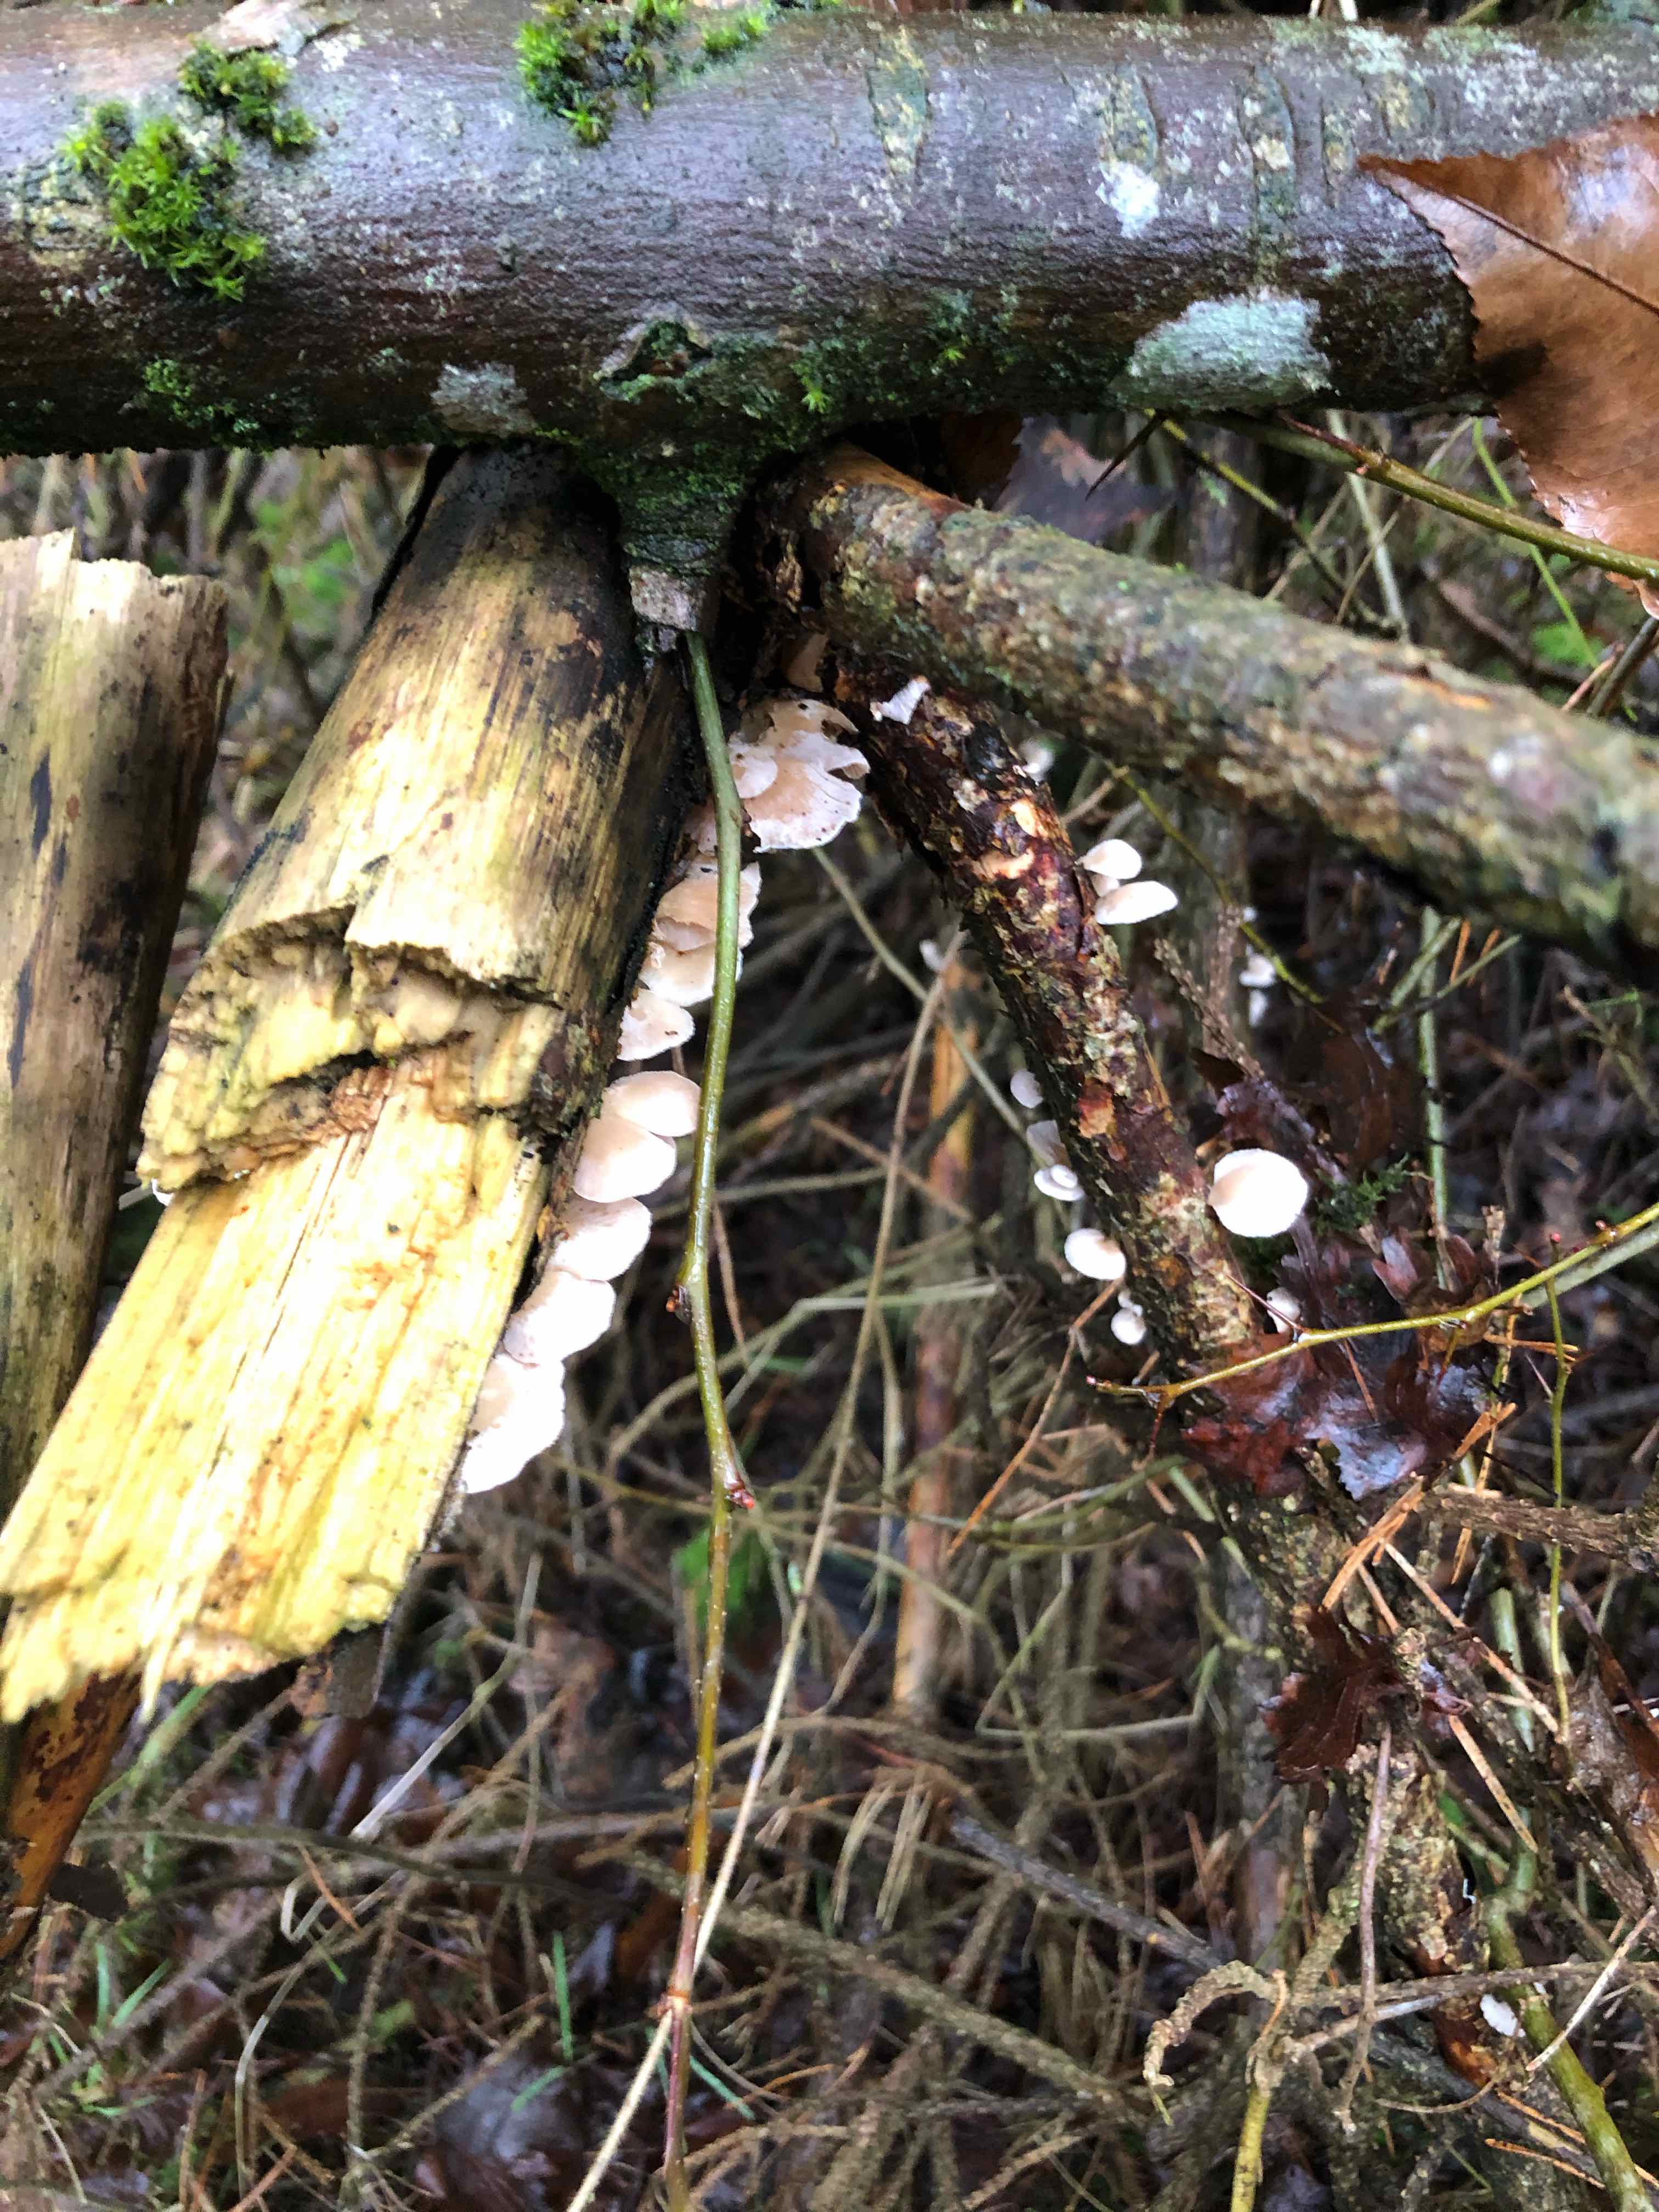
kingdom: Fungi
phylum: Basidiomycota
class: Agaricomycetes
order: Agaricales
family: Mycenaceae
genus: Panellus
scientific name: Panellus mitis
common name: mild epaulethat
